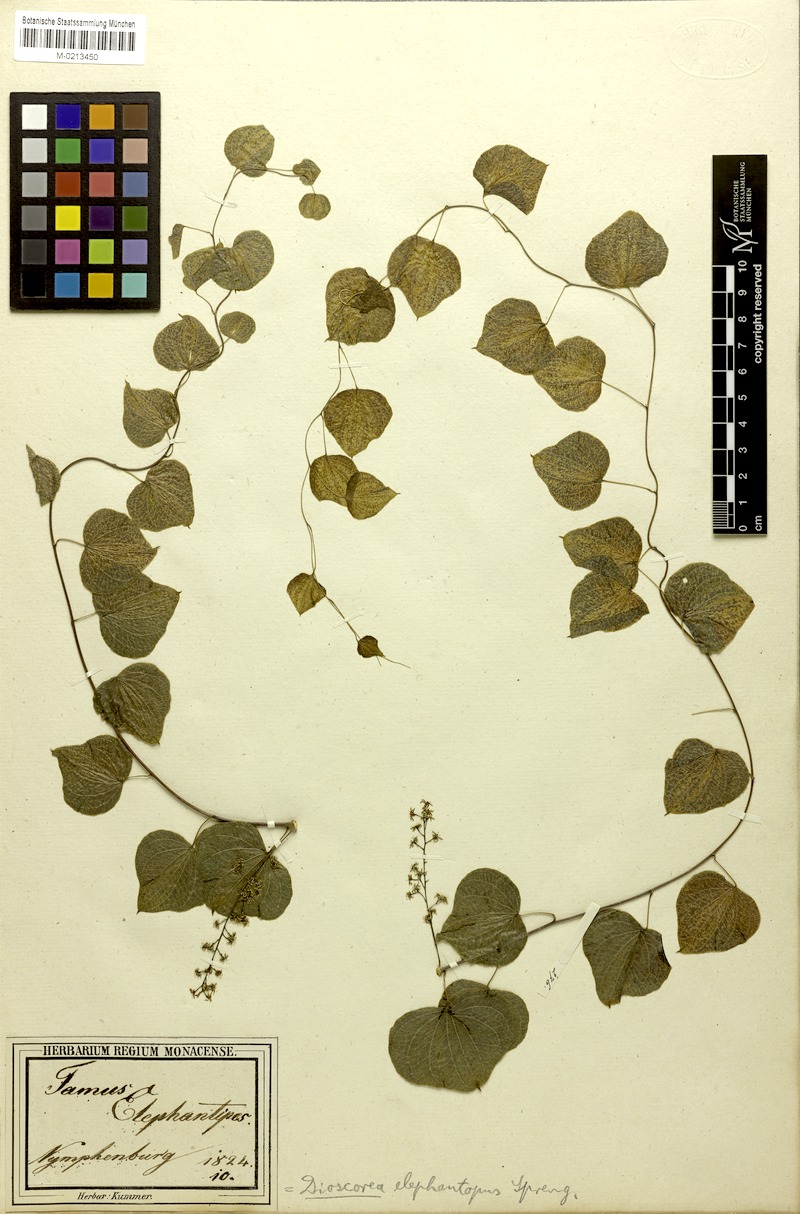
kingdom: Plantae
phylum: Tracheophyta
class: Liliopsida
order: Dioscoreales
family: Dioscoreaceae
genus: Dioscorea
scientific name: Dioscorea elephantipes
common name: Elephant's foot yam
